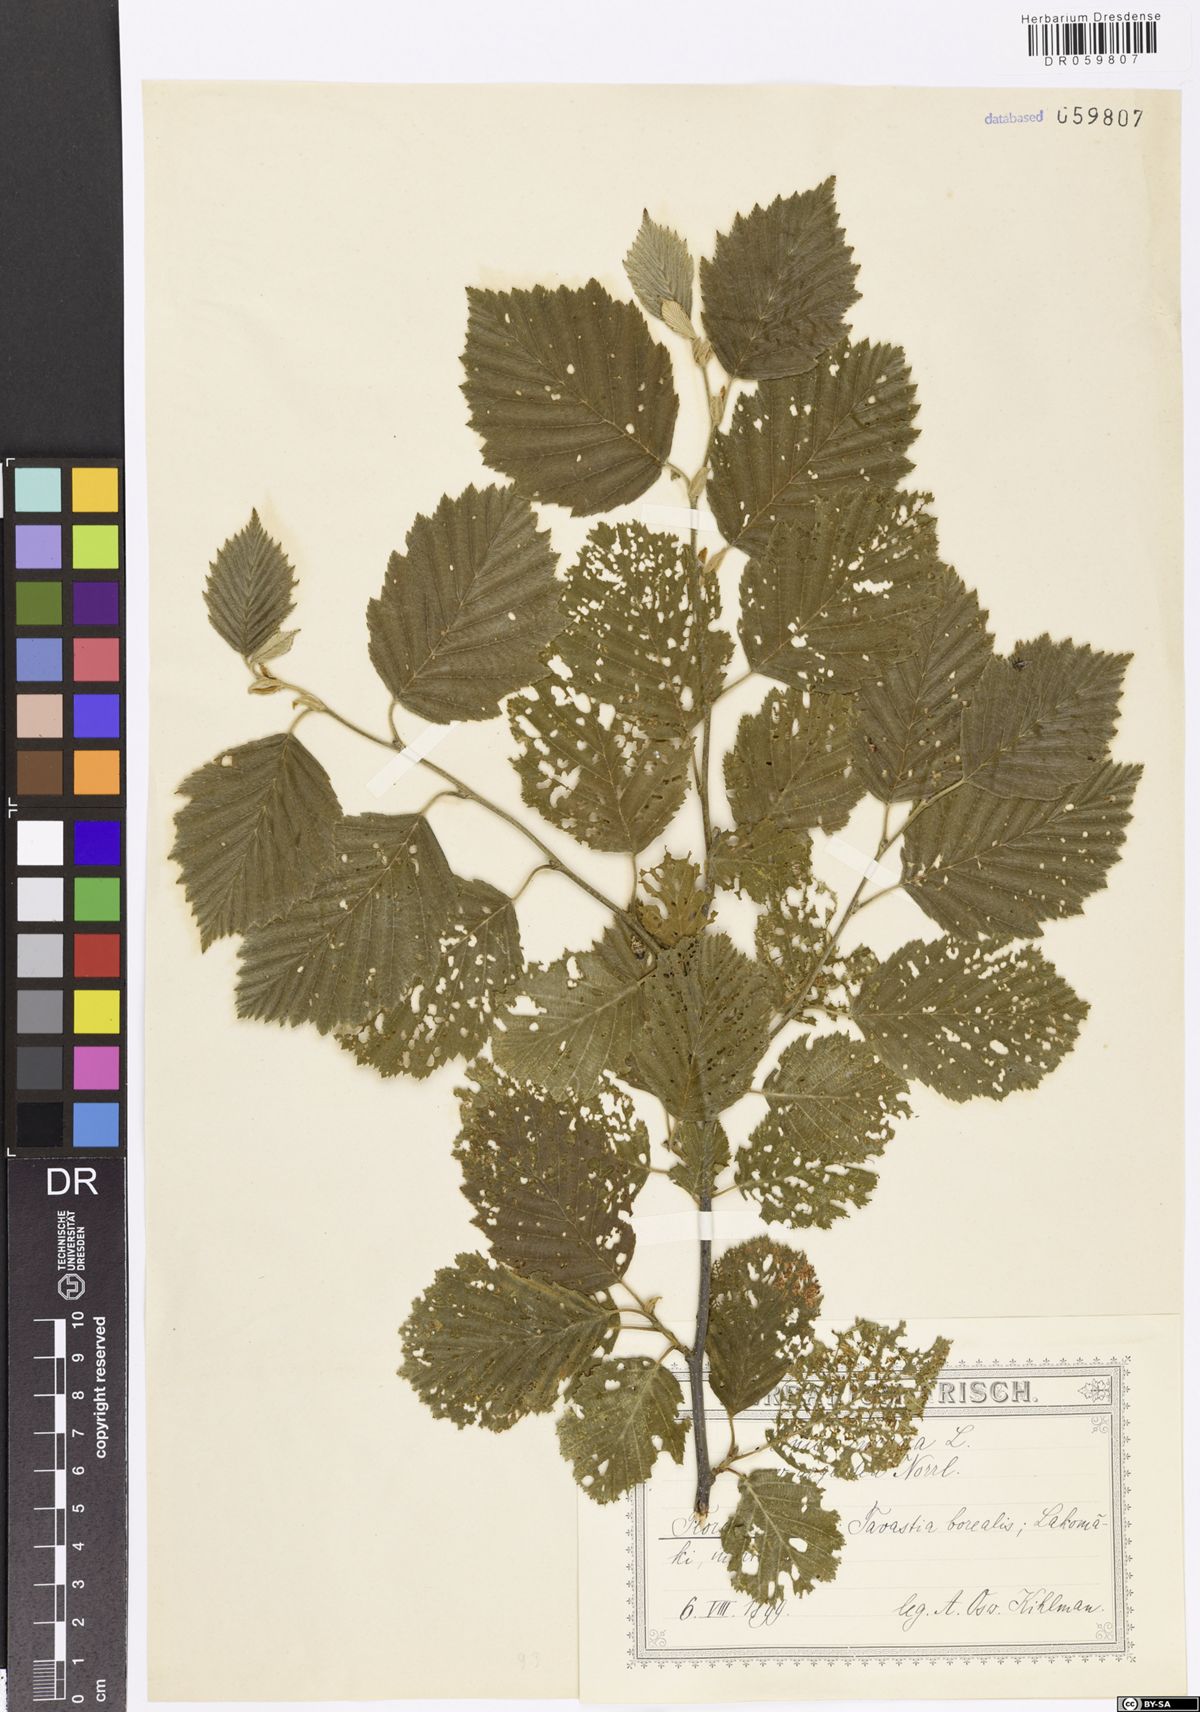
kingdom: Plantae
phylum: Tracheophyta
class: Magnoliopsida
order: Fagales
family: Betulaceae
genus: Alnus
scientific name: Alnus incana
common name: Grey alder
